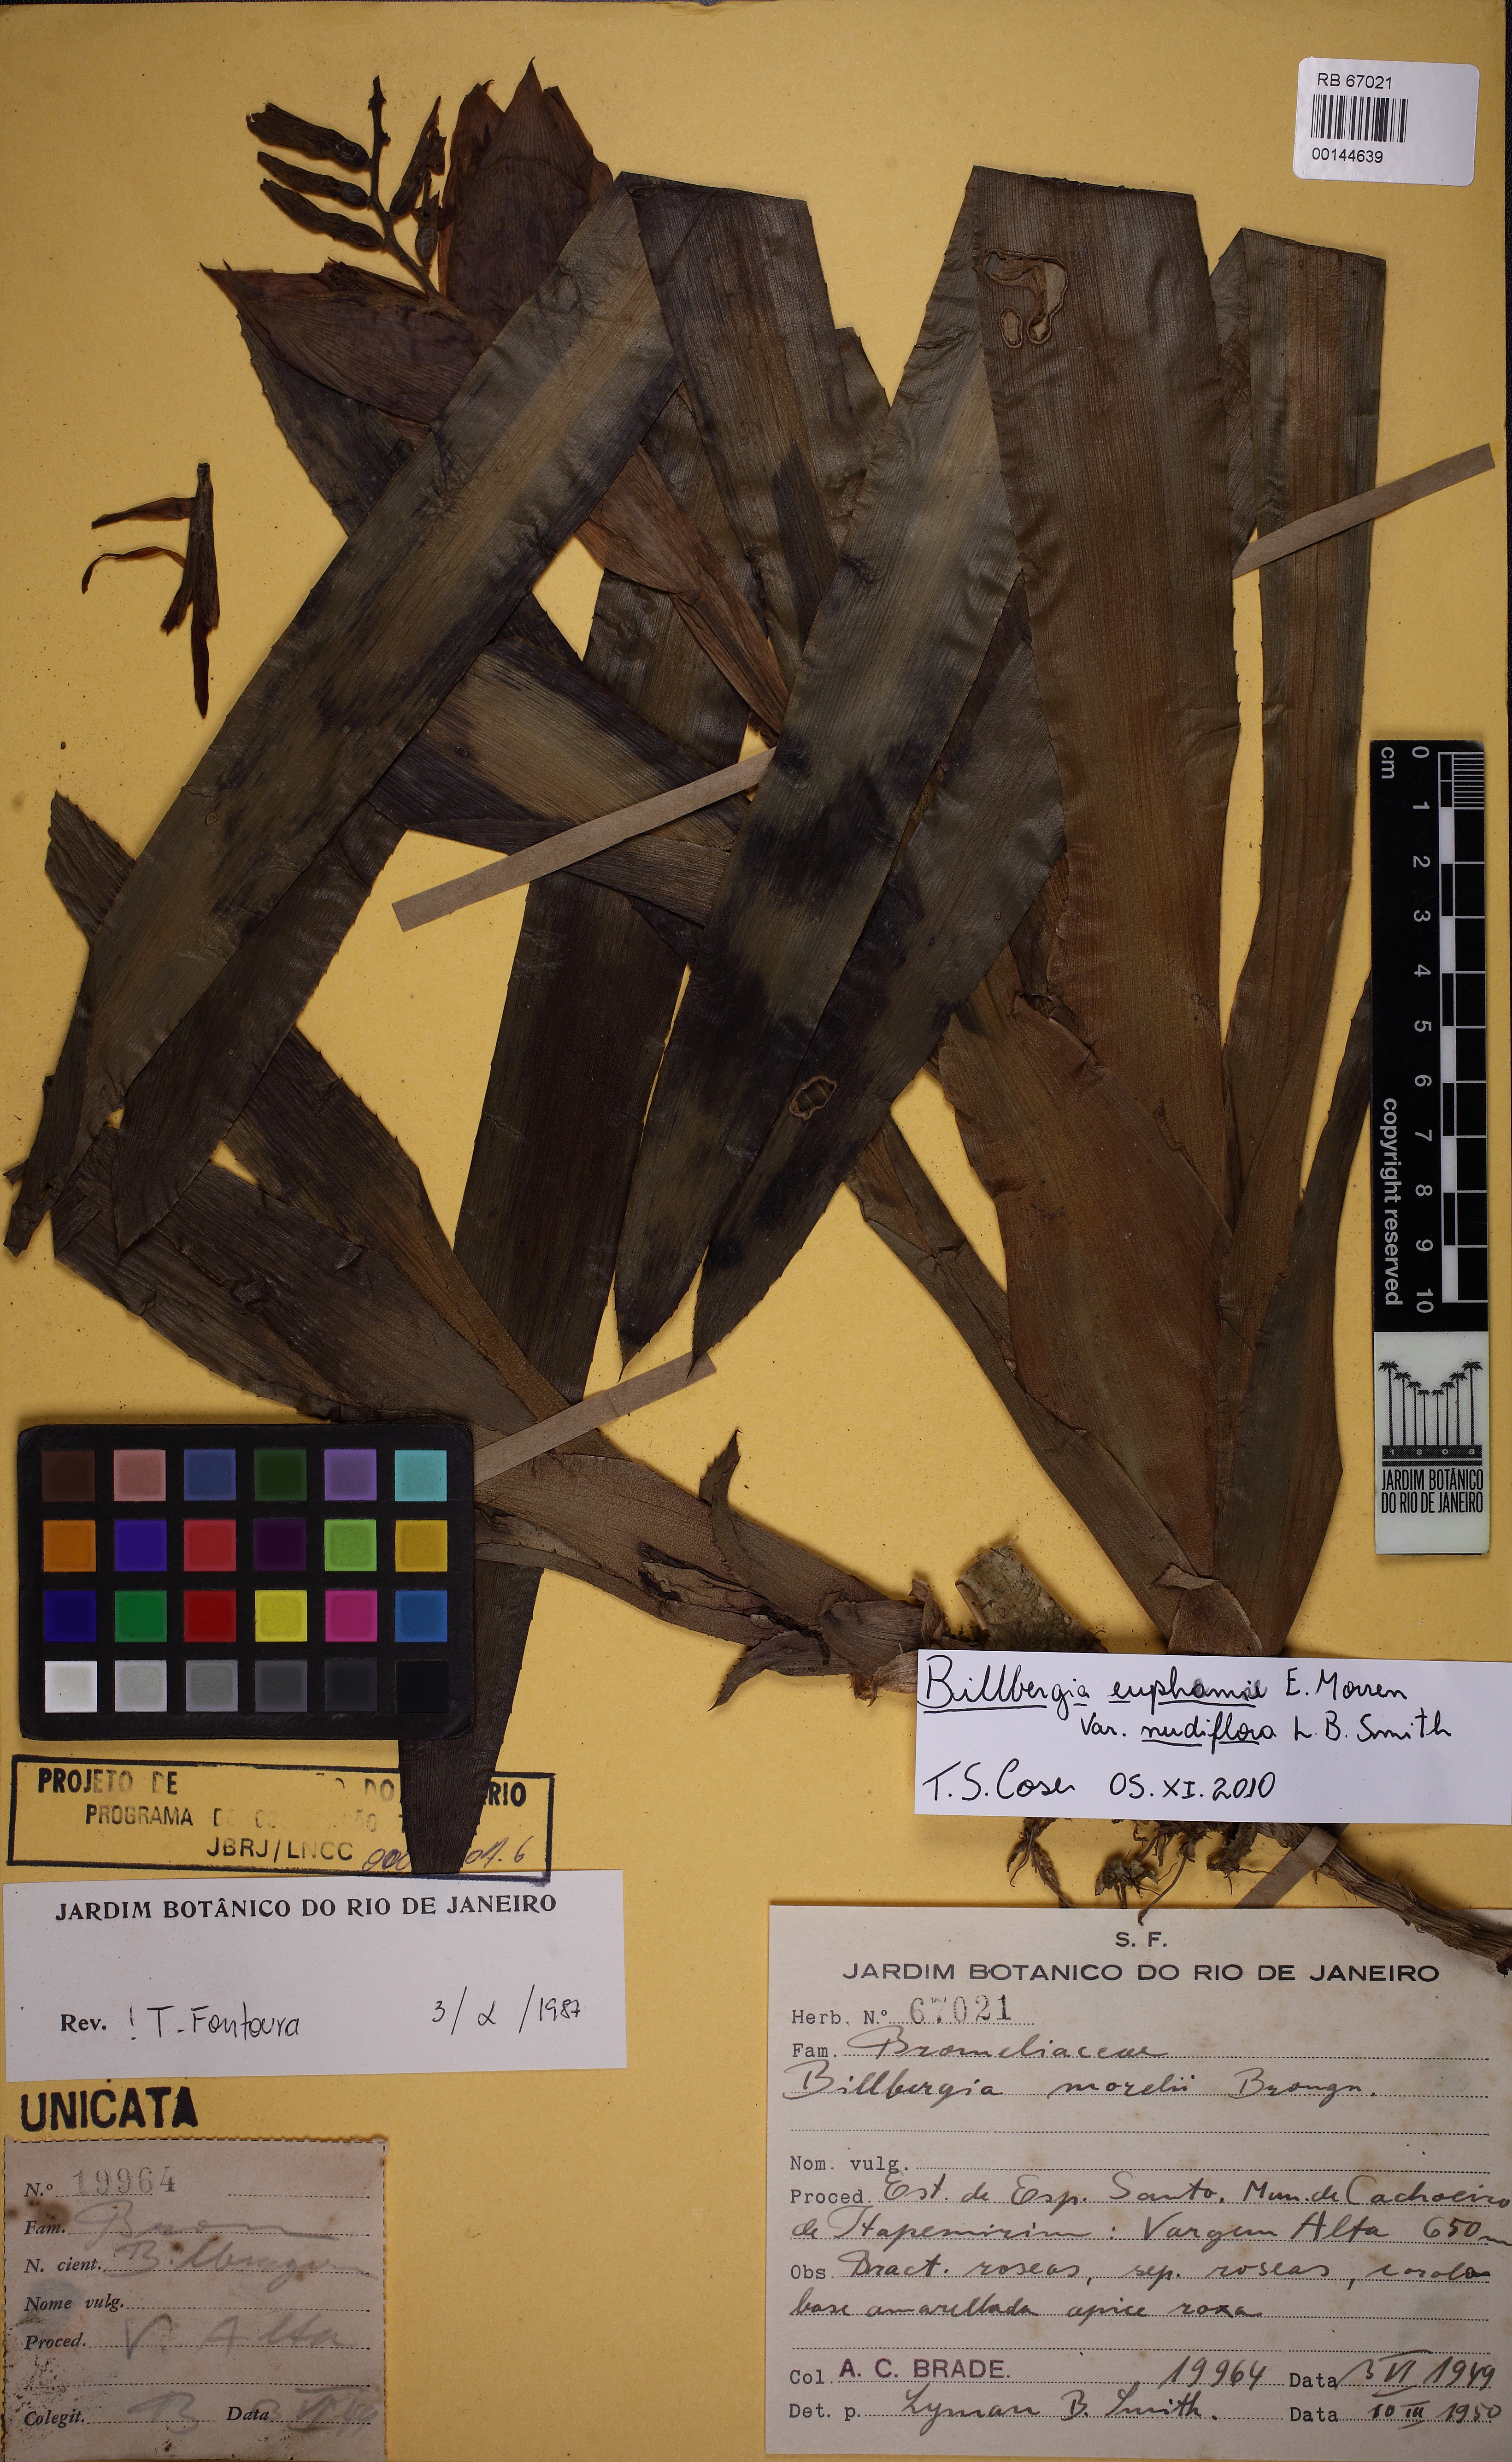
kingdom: Plantae
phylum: Tracheophyta
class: Liliopsida
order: Poales
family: Bromeliaceae
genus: Billbergia
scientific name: Billbergia euphemiae
